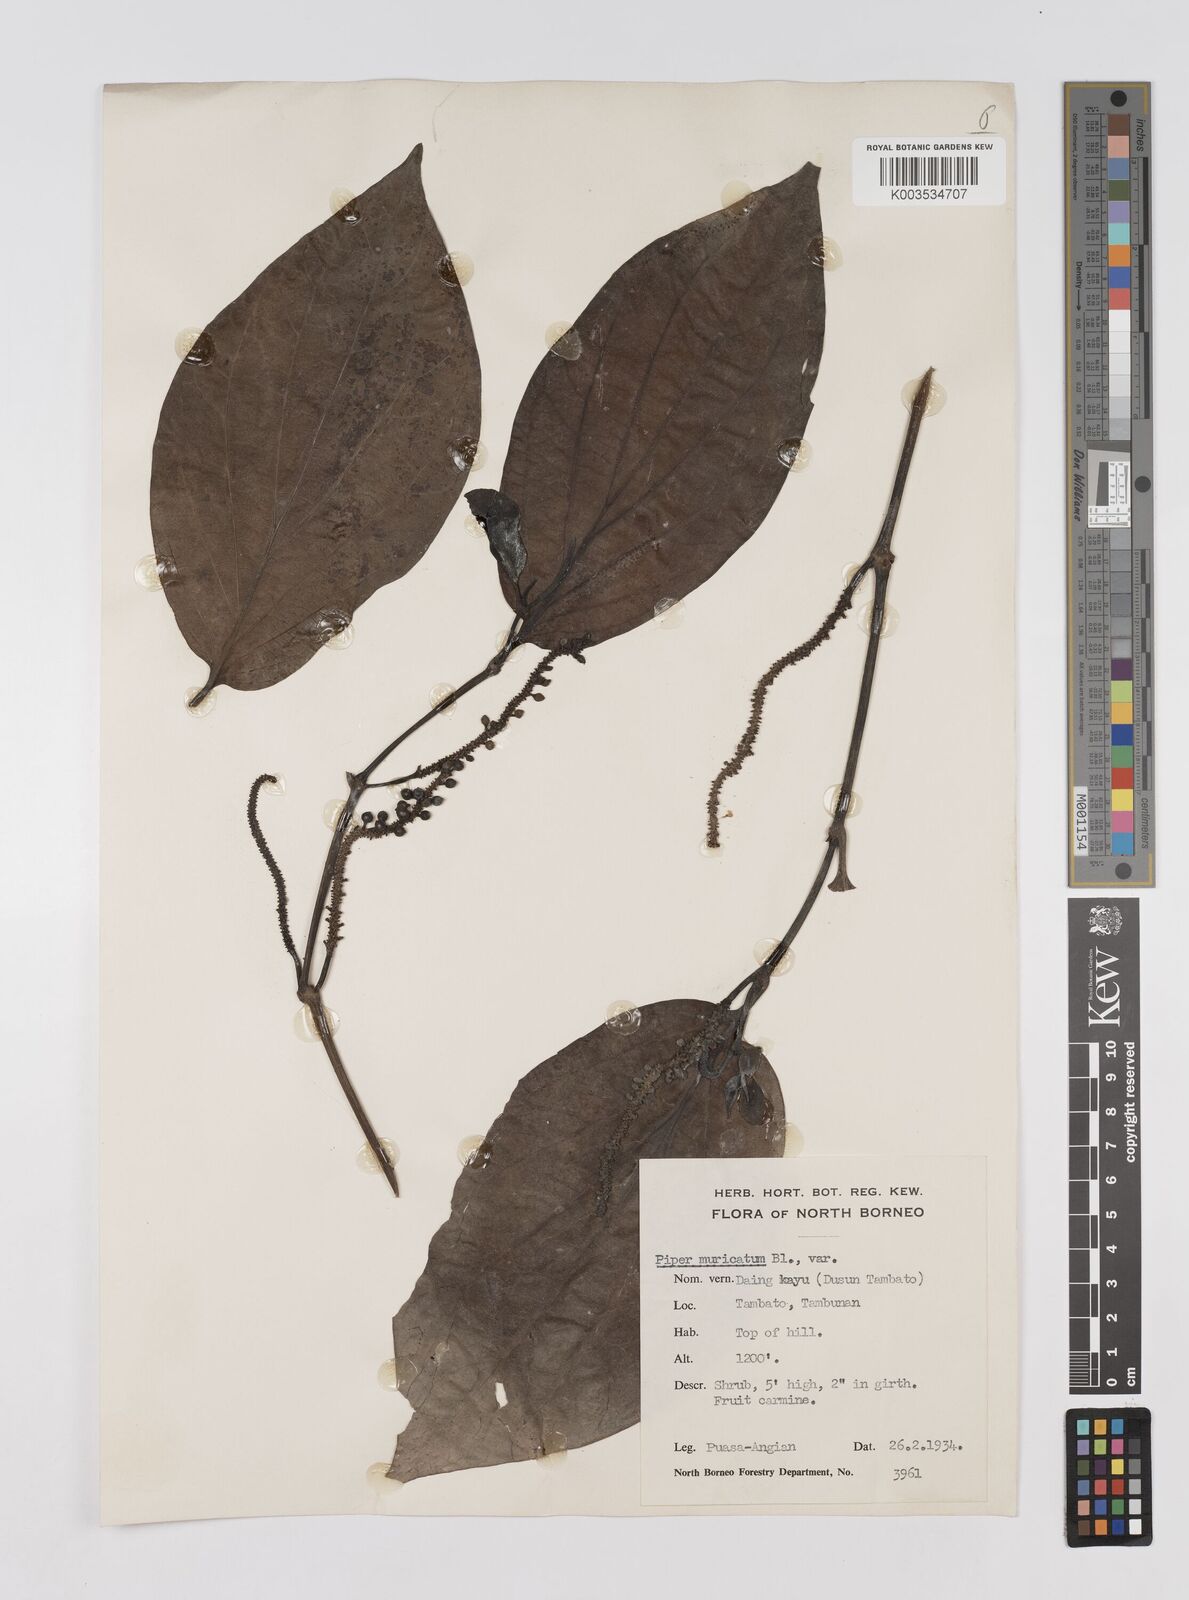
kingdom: Plantae
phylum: Tracheophyta
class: Magnoliopsida
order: Piperales
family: Piperaceae
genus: Piper
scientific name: Piper muricatum
